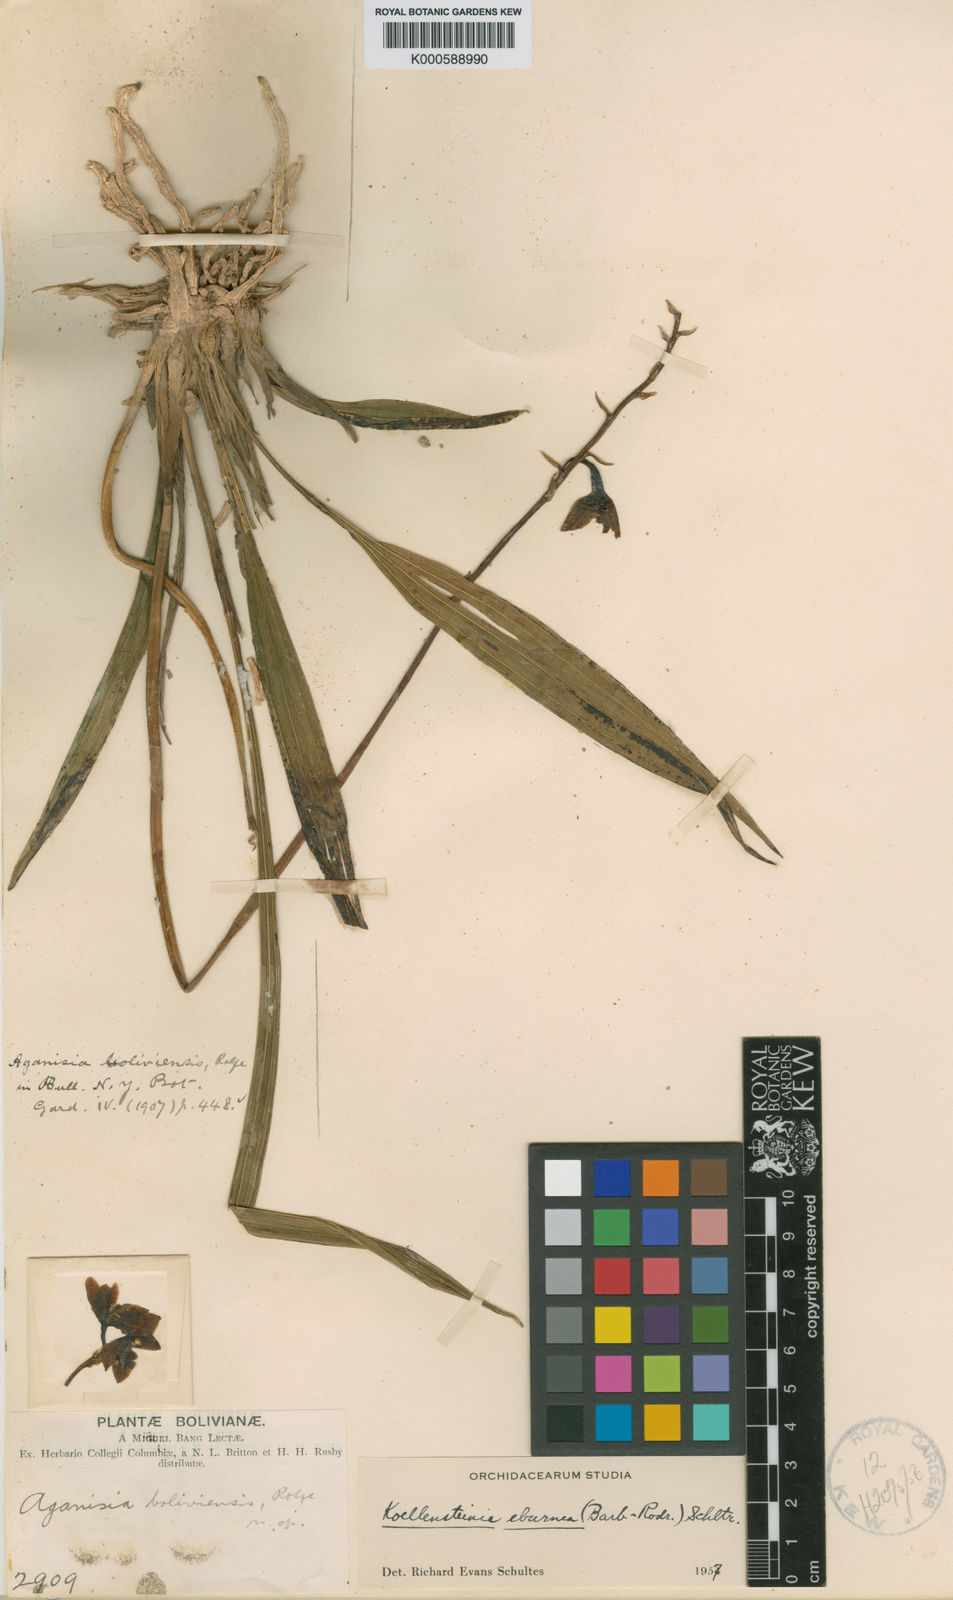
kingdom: Plantae
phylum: Tracheophyta
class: Liliopsida
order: Asparagales
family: Orchidaceae
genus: Koellensteinia
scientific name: Koellensteinia eburnea
